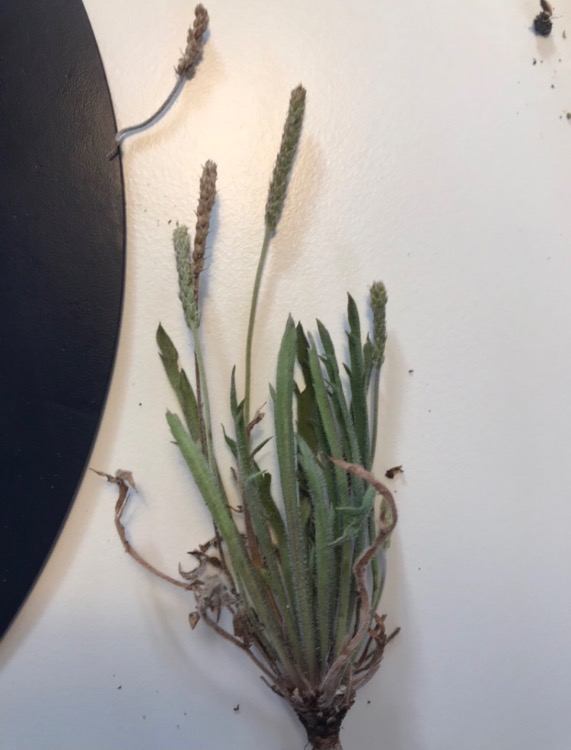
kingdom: Plantae
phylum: Tracheophyta
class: Magnoliopsida
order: Lamiales
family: Plantaginaceae
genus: Plantago
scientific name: Plantago coronopus
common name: Fliget vejbred
